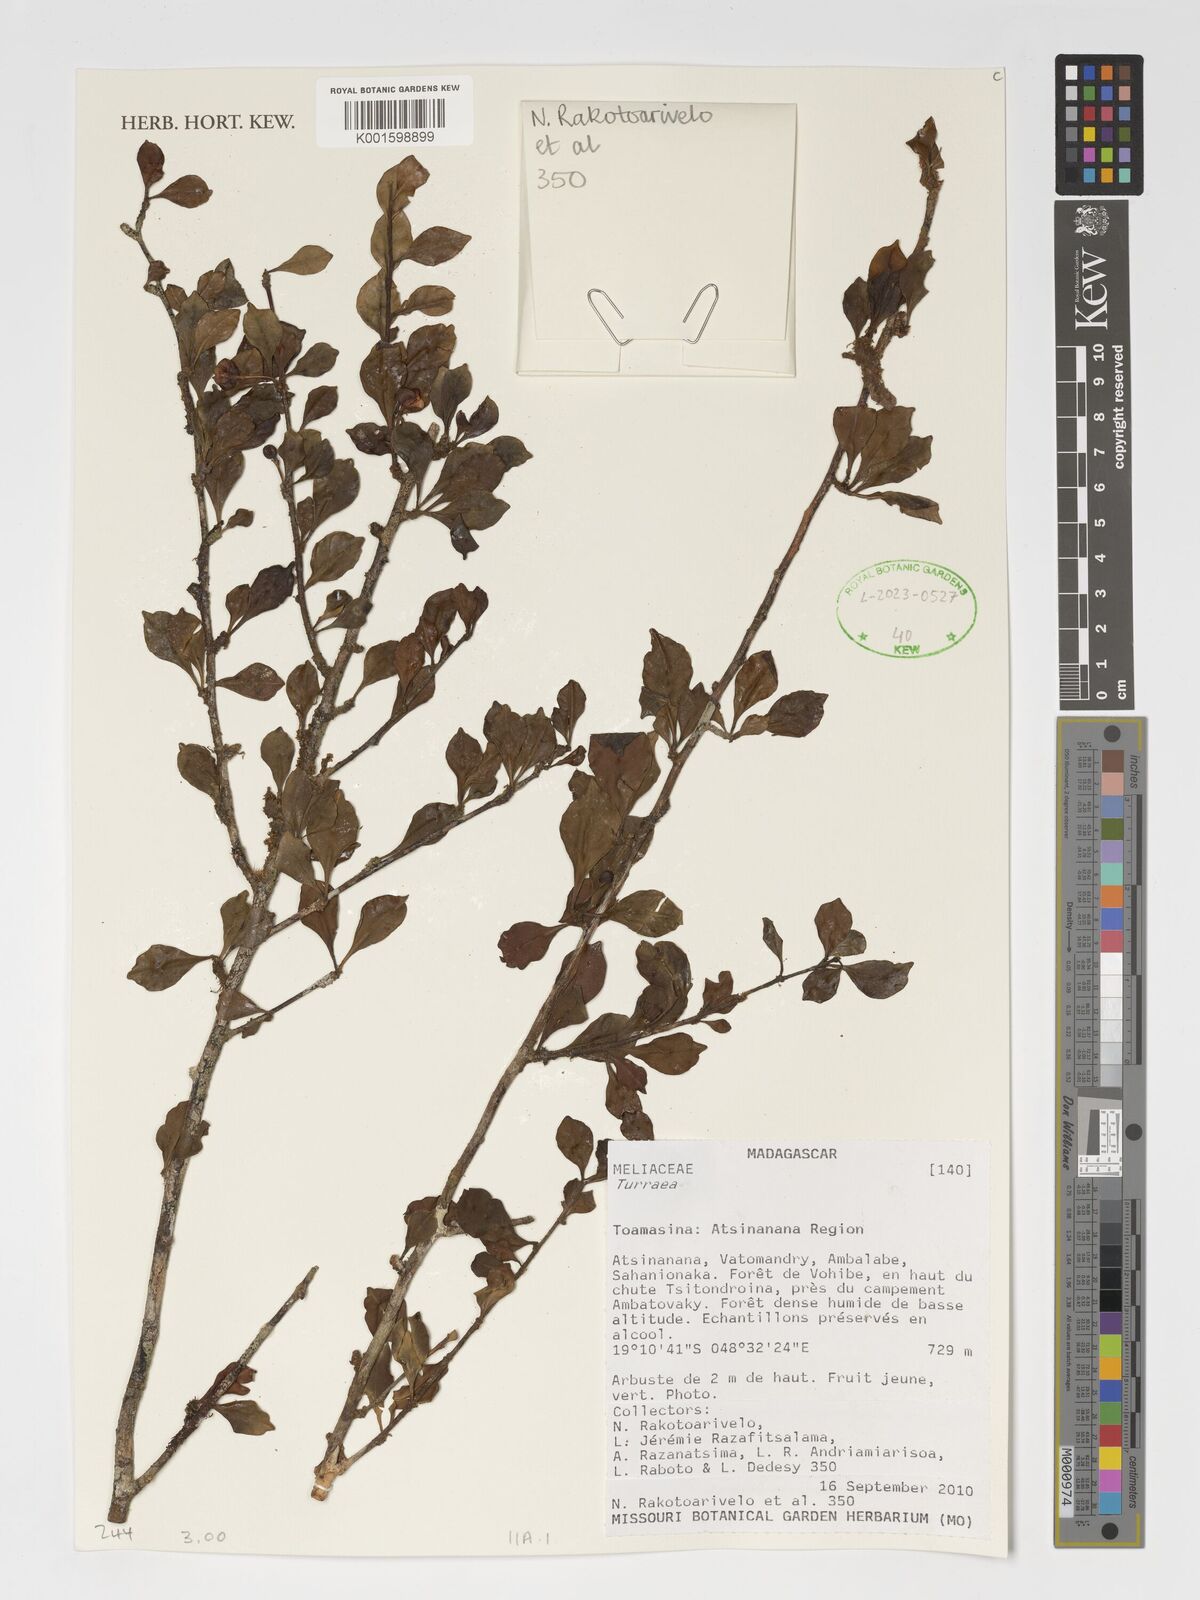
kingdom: Plantae
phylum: Tracheophyta
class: Magnoliopsida
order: Sapindales
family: Meliaceae
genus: Turraea
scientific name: Turraea
